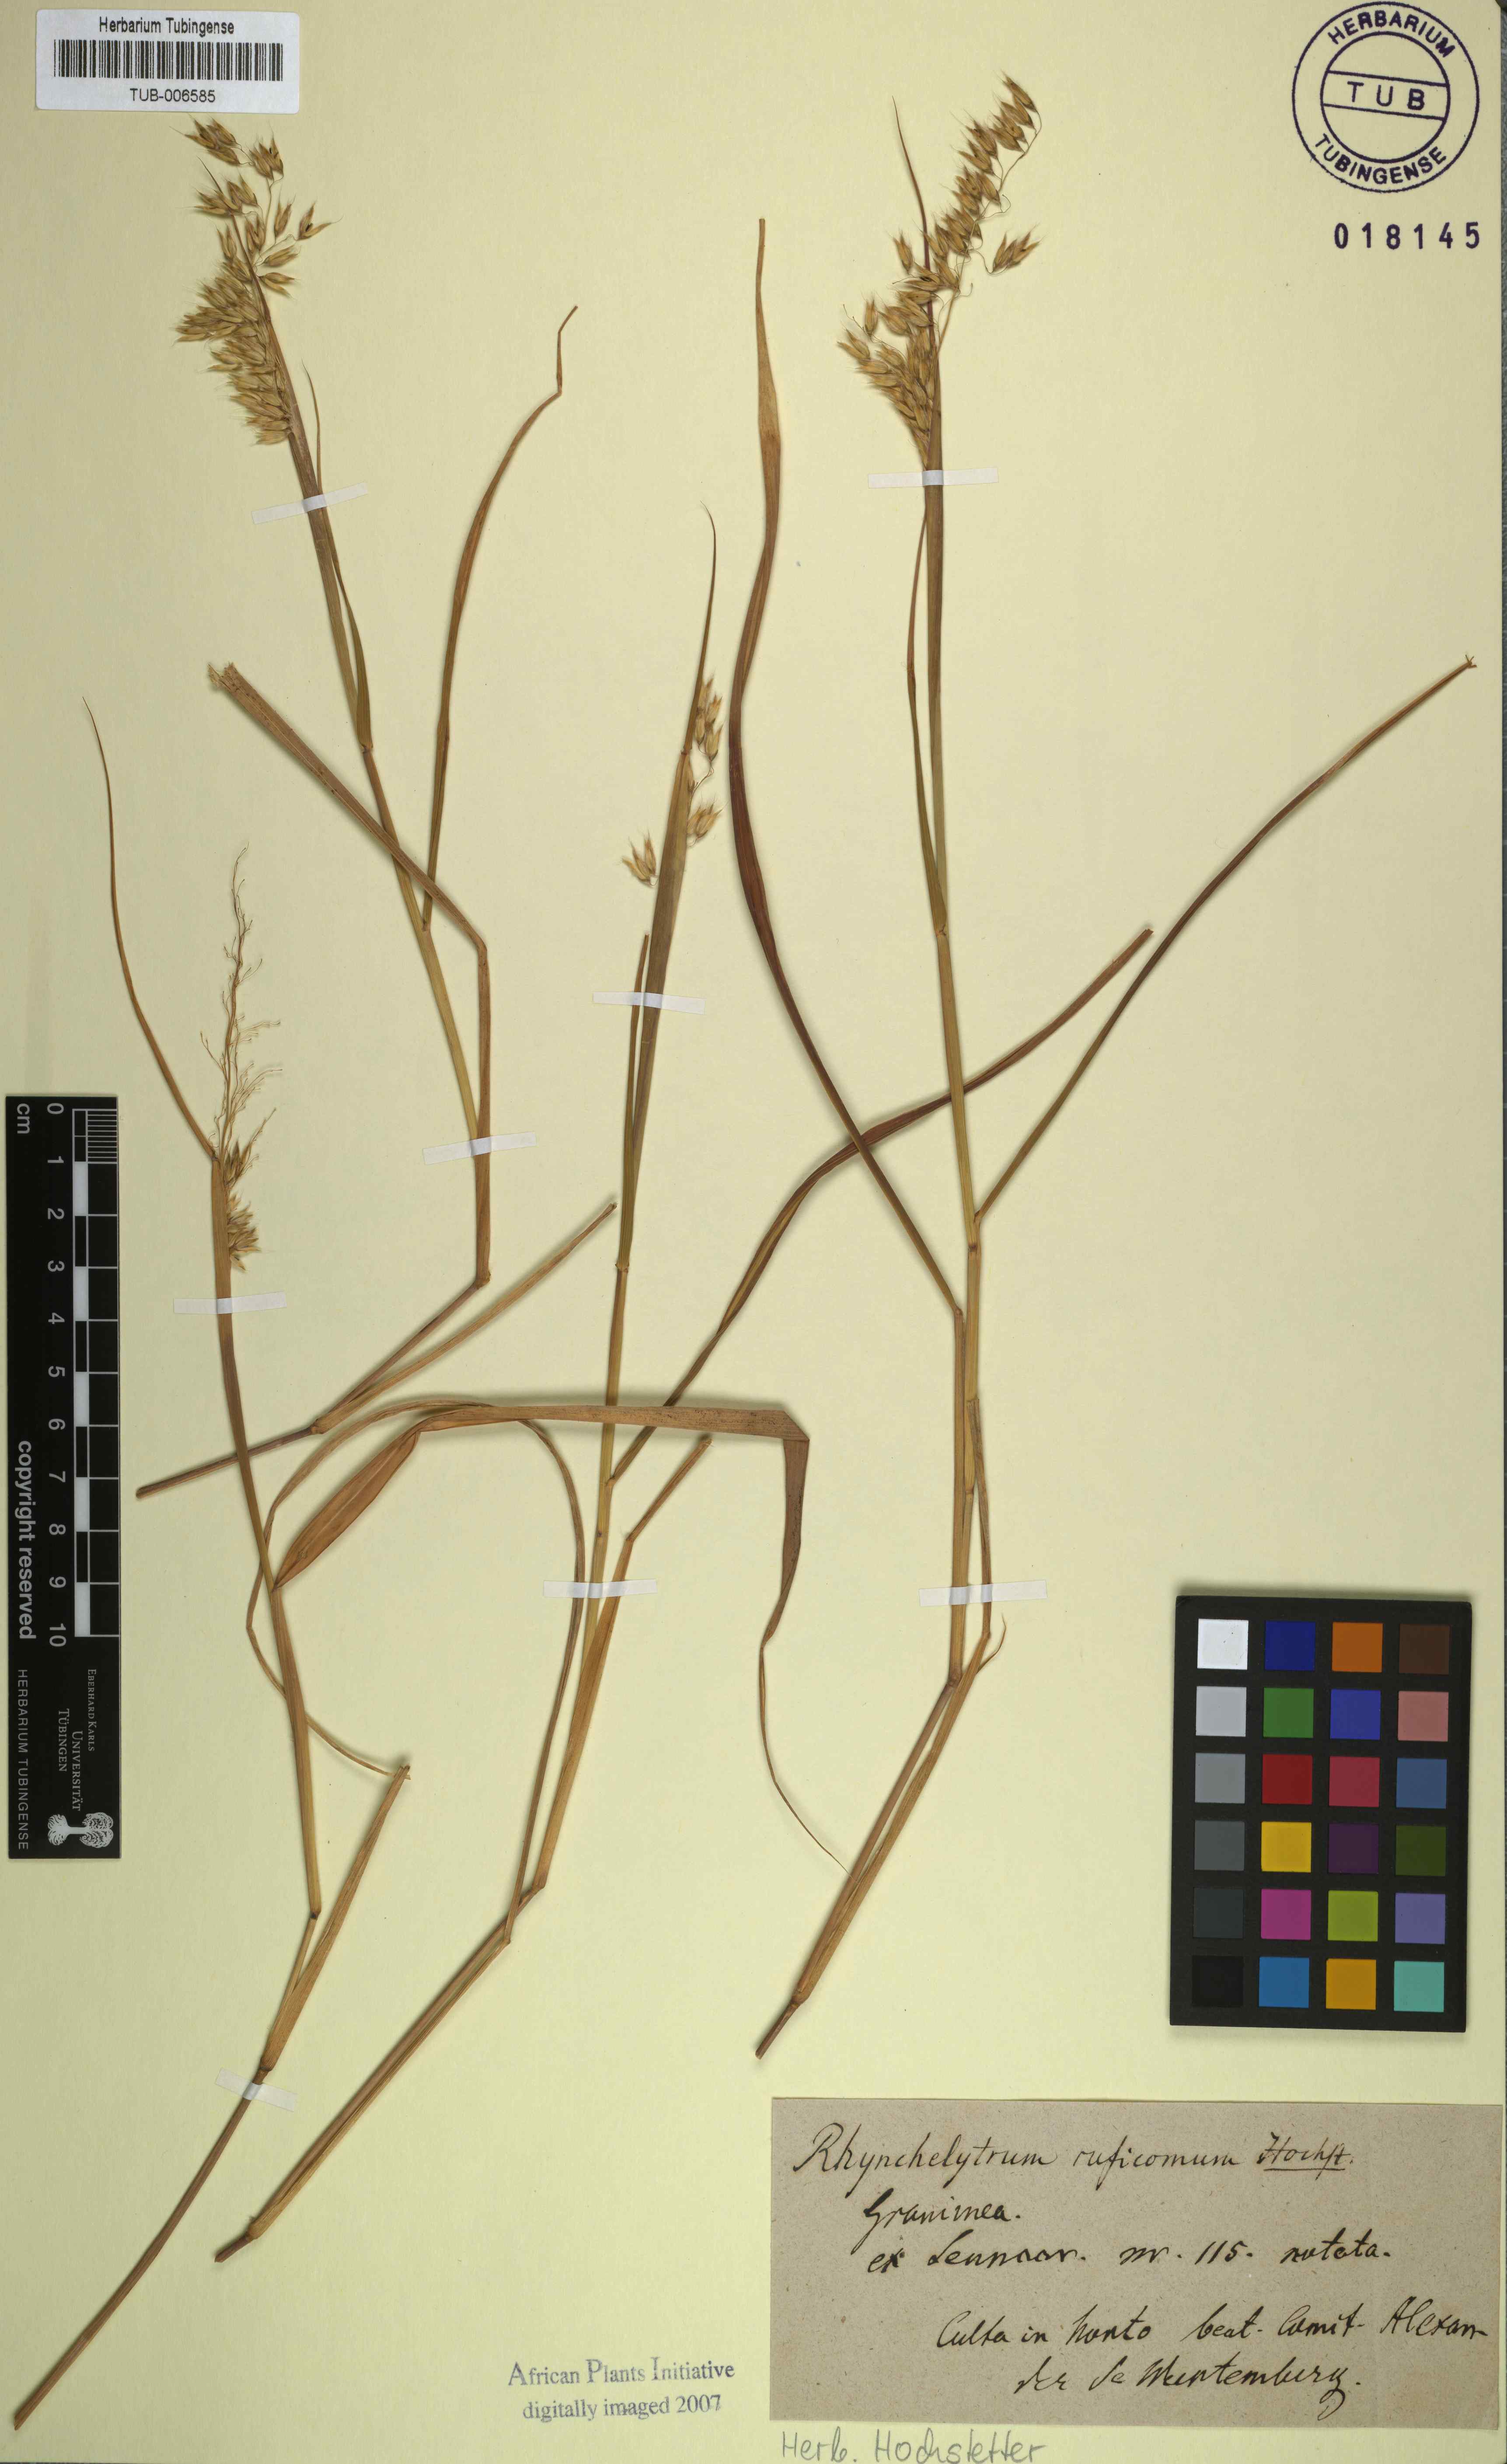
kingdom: Plantae
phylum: Tracheophyta
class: Liliopsida
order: Poales
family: Poaceae
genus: Melinis
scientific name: Melinis repens
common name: Rose natal grass
